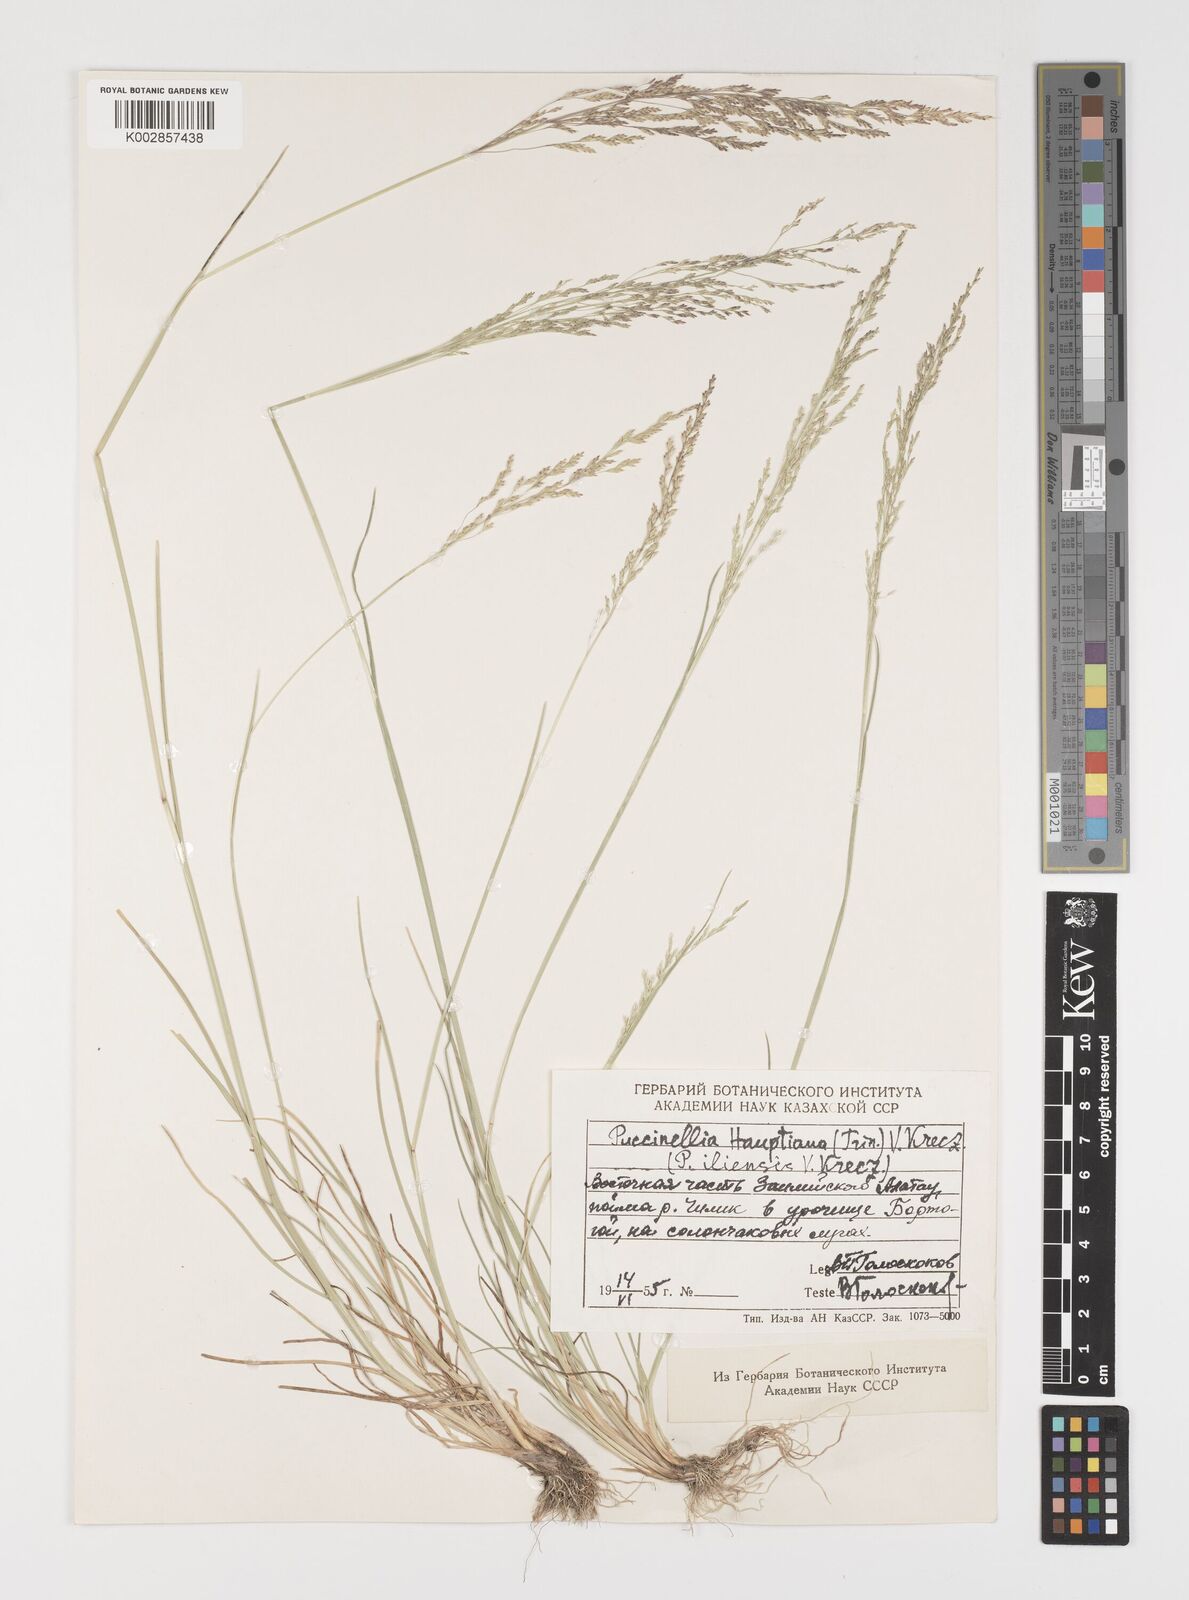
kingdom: Plantae
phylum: Tracheophyta
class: Liliopsida
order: Poales
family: Poaceae
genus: Puccinellia
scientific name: Puccinellia distans
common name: Weeping alkaligrass
